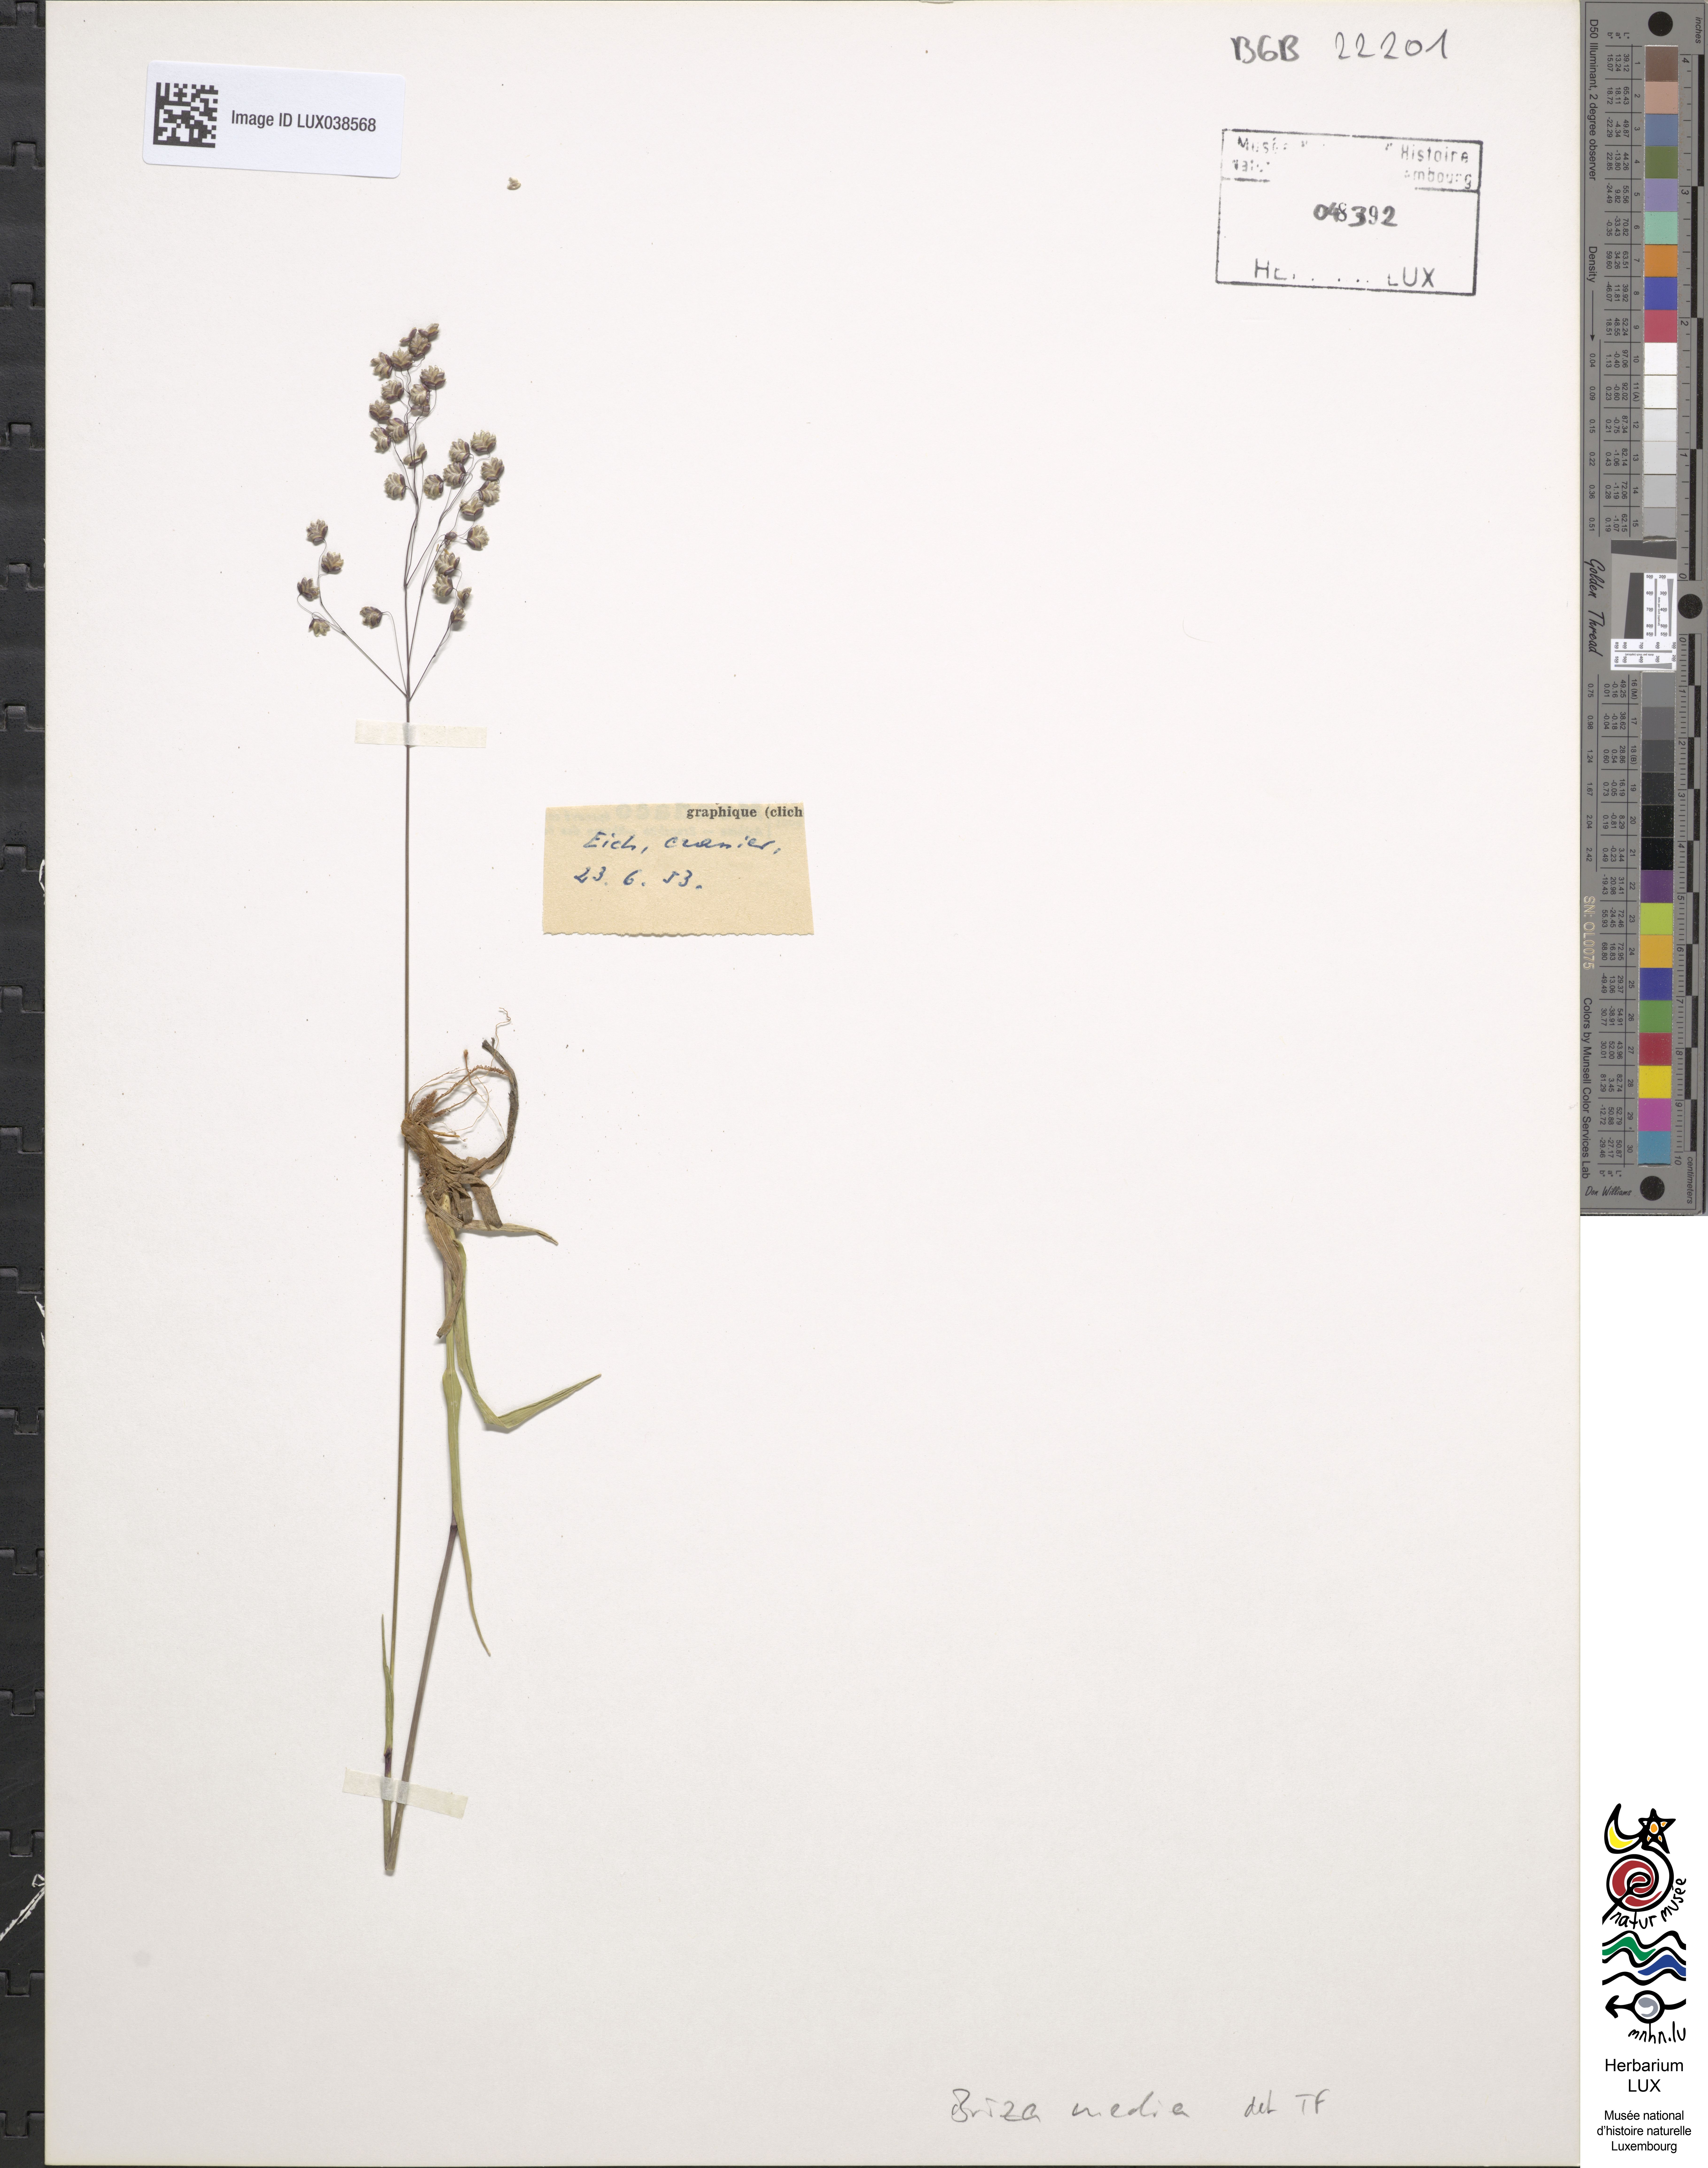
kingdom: Plantae
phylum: Tracheophyta
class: Liliopsida
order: Poales
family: Poaceae
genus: Briza
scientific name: Briza media
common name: Quaking grass
